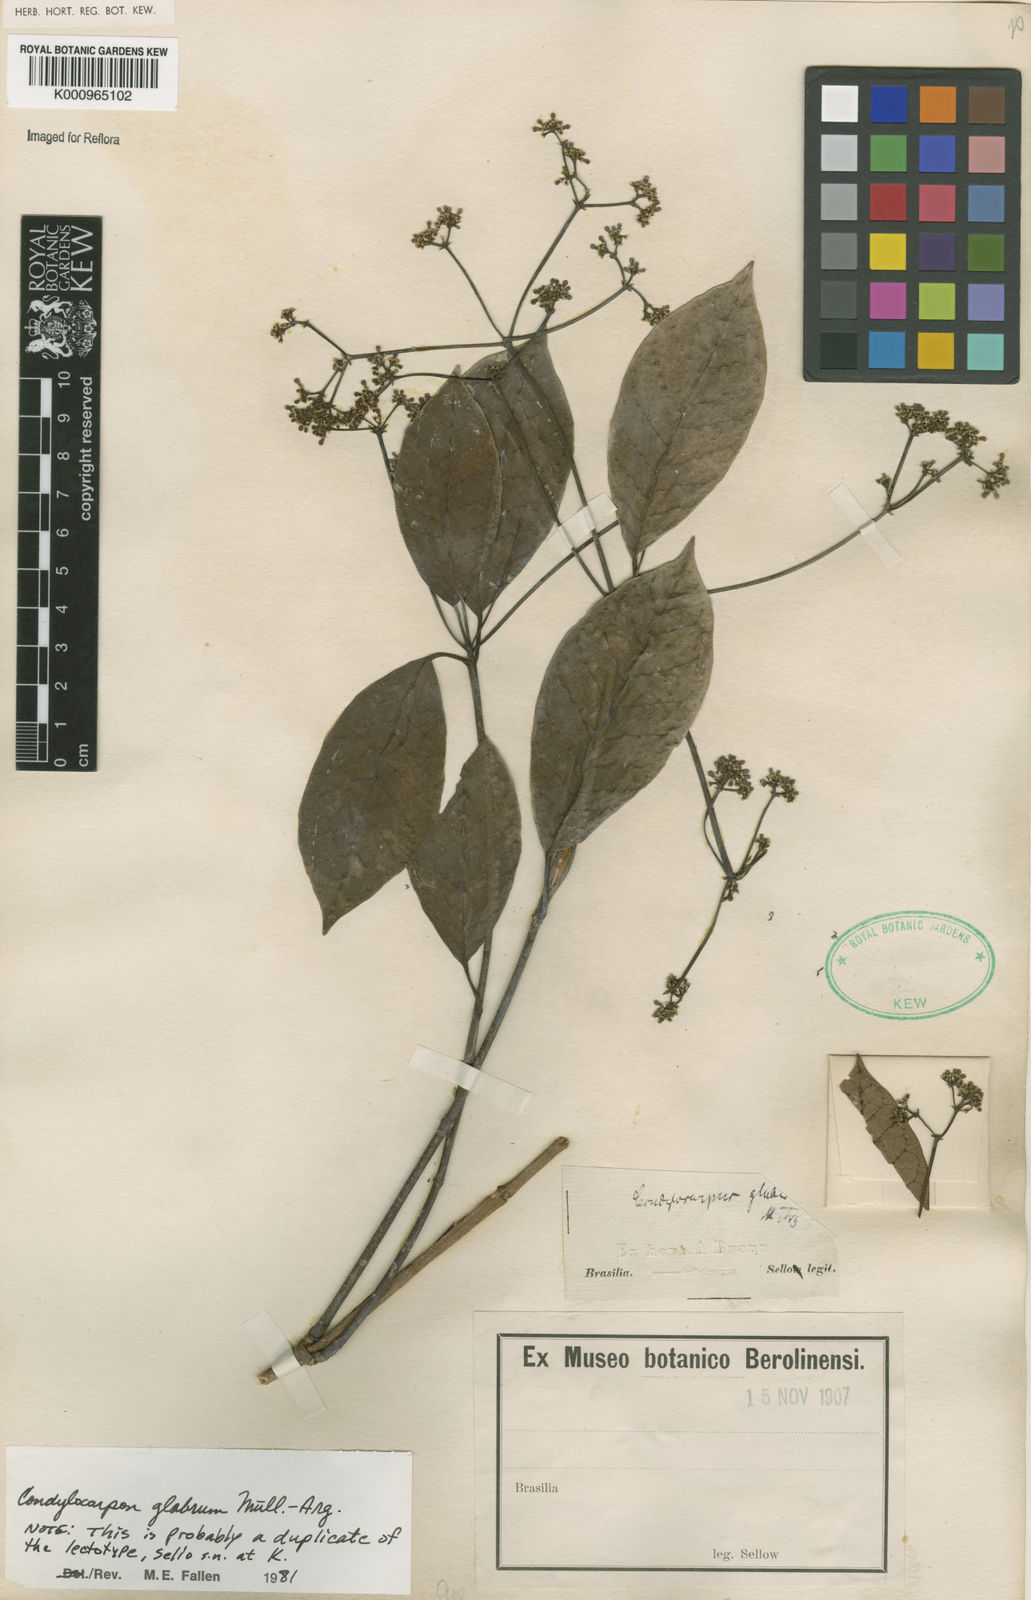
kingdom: Plantae
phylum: Tracheophyta
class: Magnoliopsida
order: Gentianales
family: Apocynaceae
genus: Condylocarpon
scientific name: Condylocarpon
